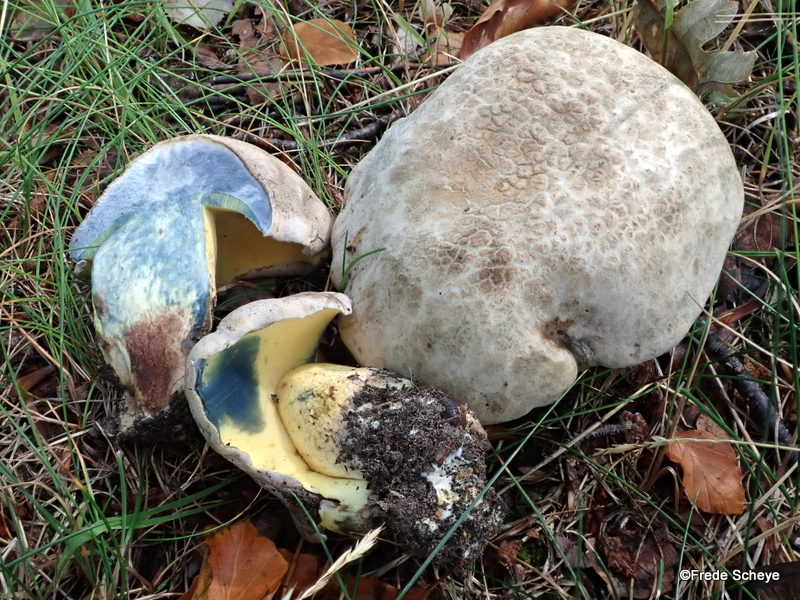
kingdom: Fungi
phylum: Basidiomycota
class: Agaricomycetes
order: Boletales
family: Boletaceae
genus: Caloboletus
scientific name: Caloboletus radicans
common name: rod-rørhat
